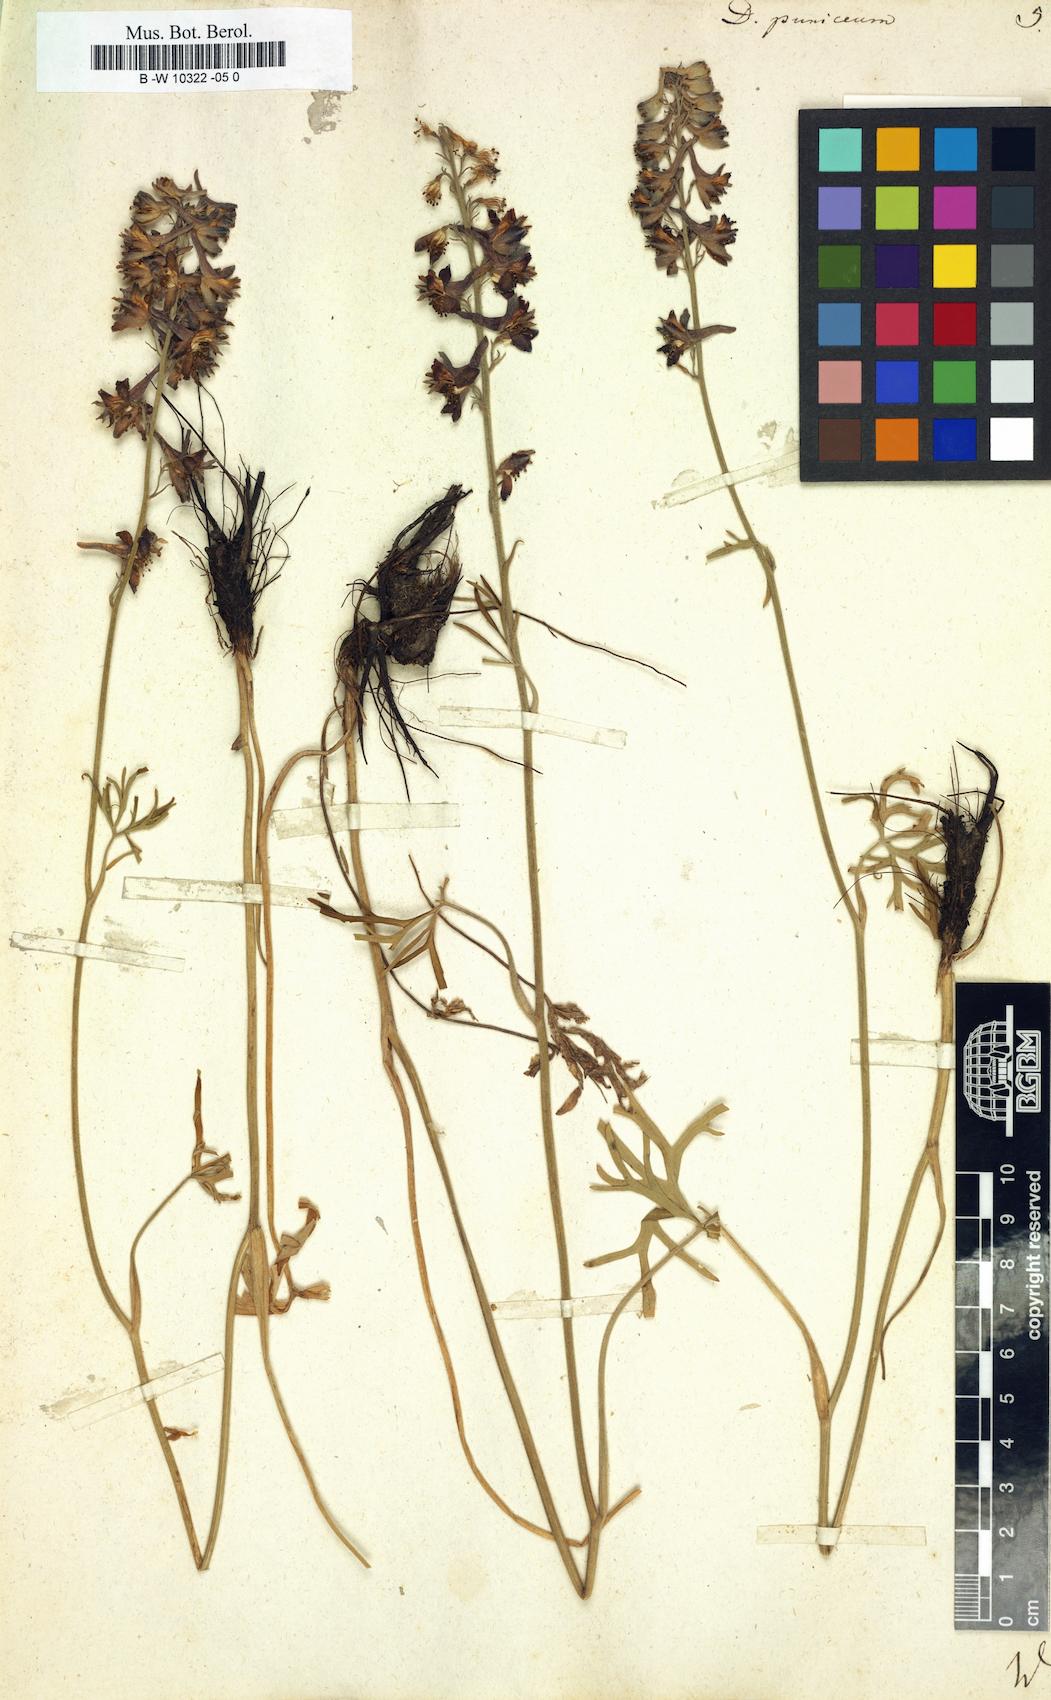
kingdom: Plantae
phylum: Tracheophyta
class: Magnoliopsida
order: Ranunculales
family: Ranunculaceae
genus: Delphinium
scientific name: Delphinium puniceum
